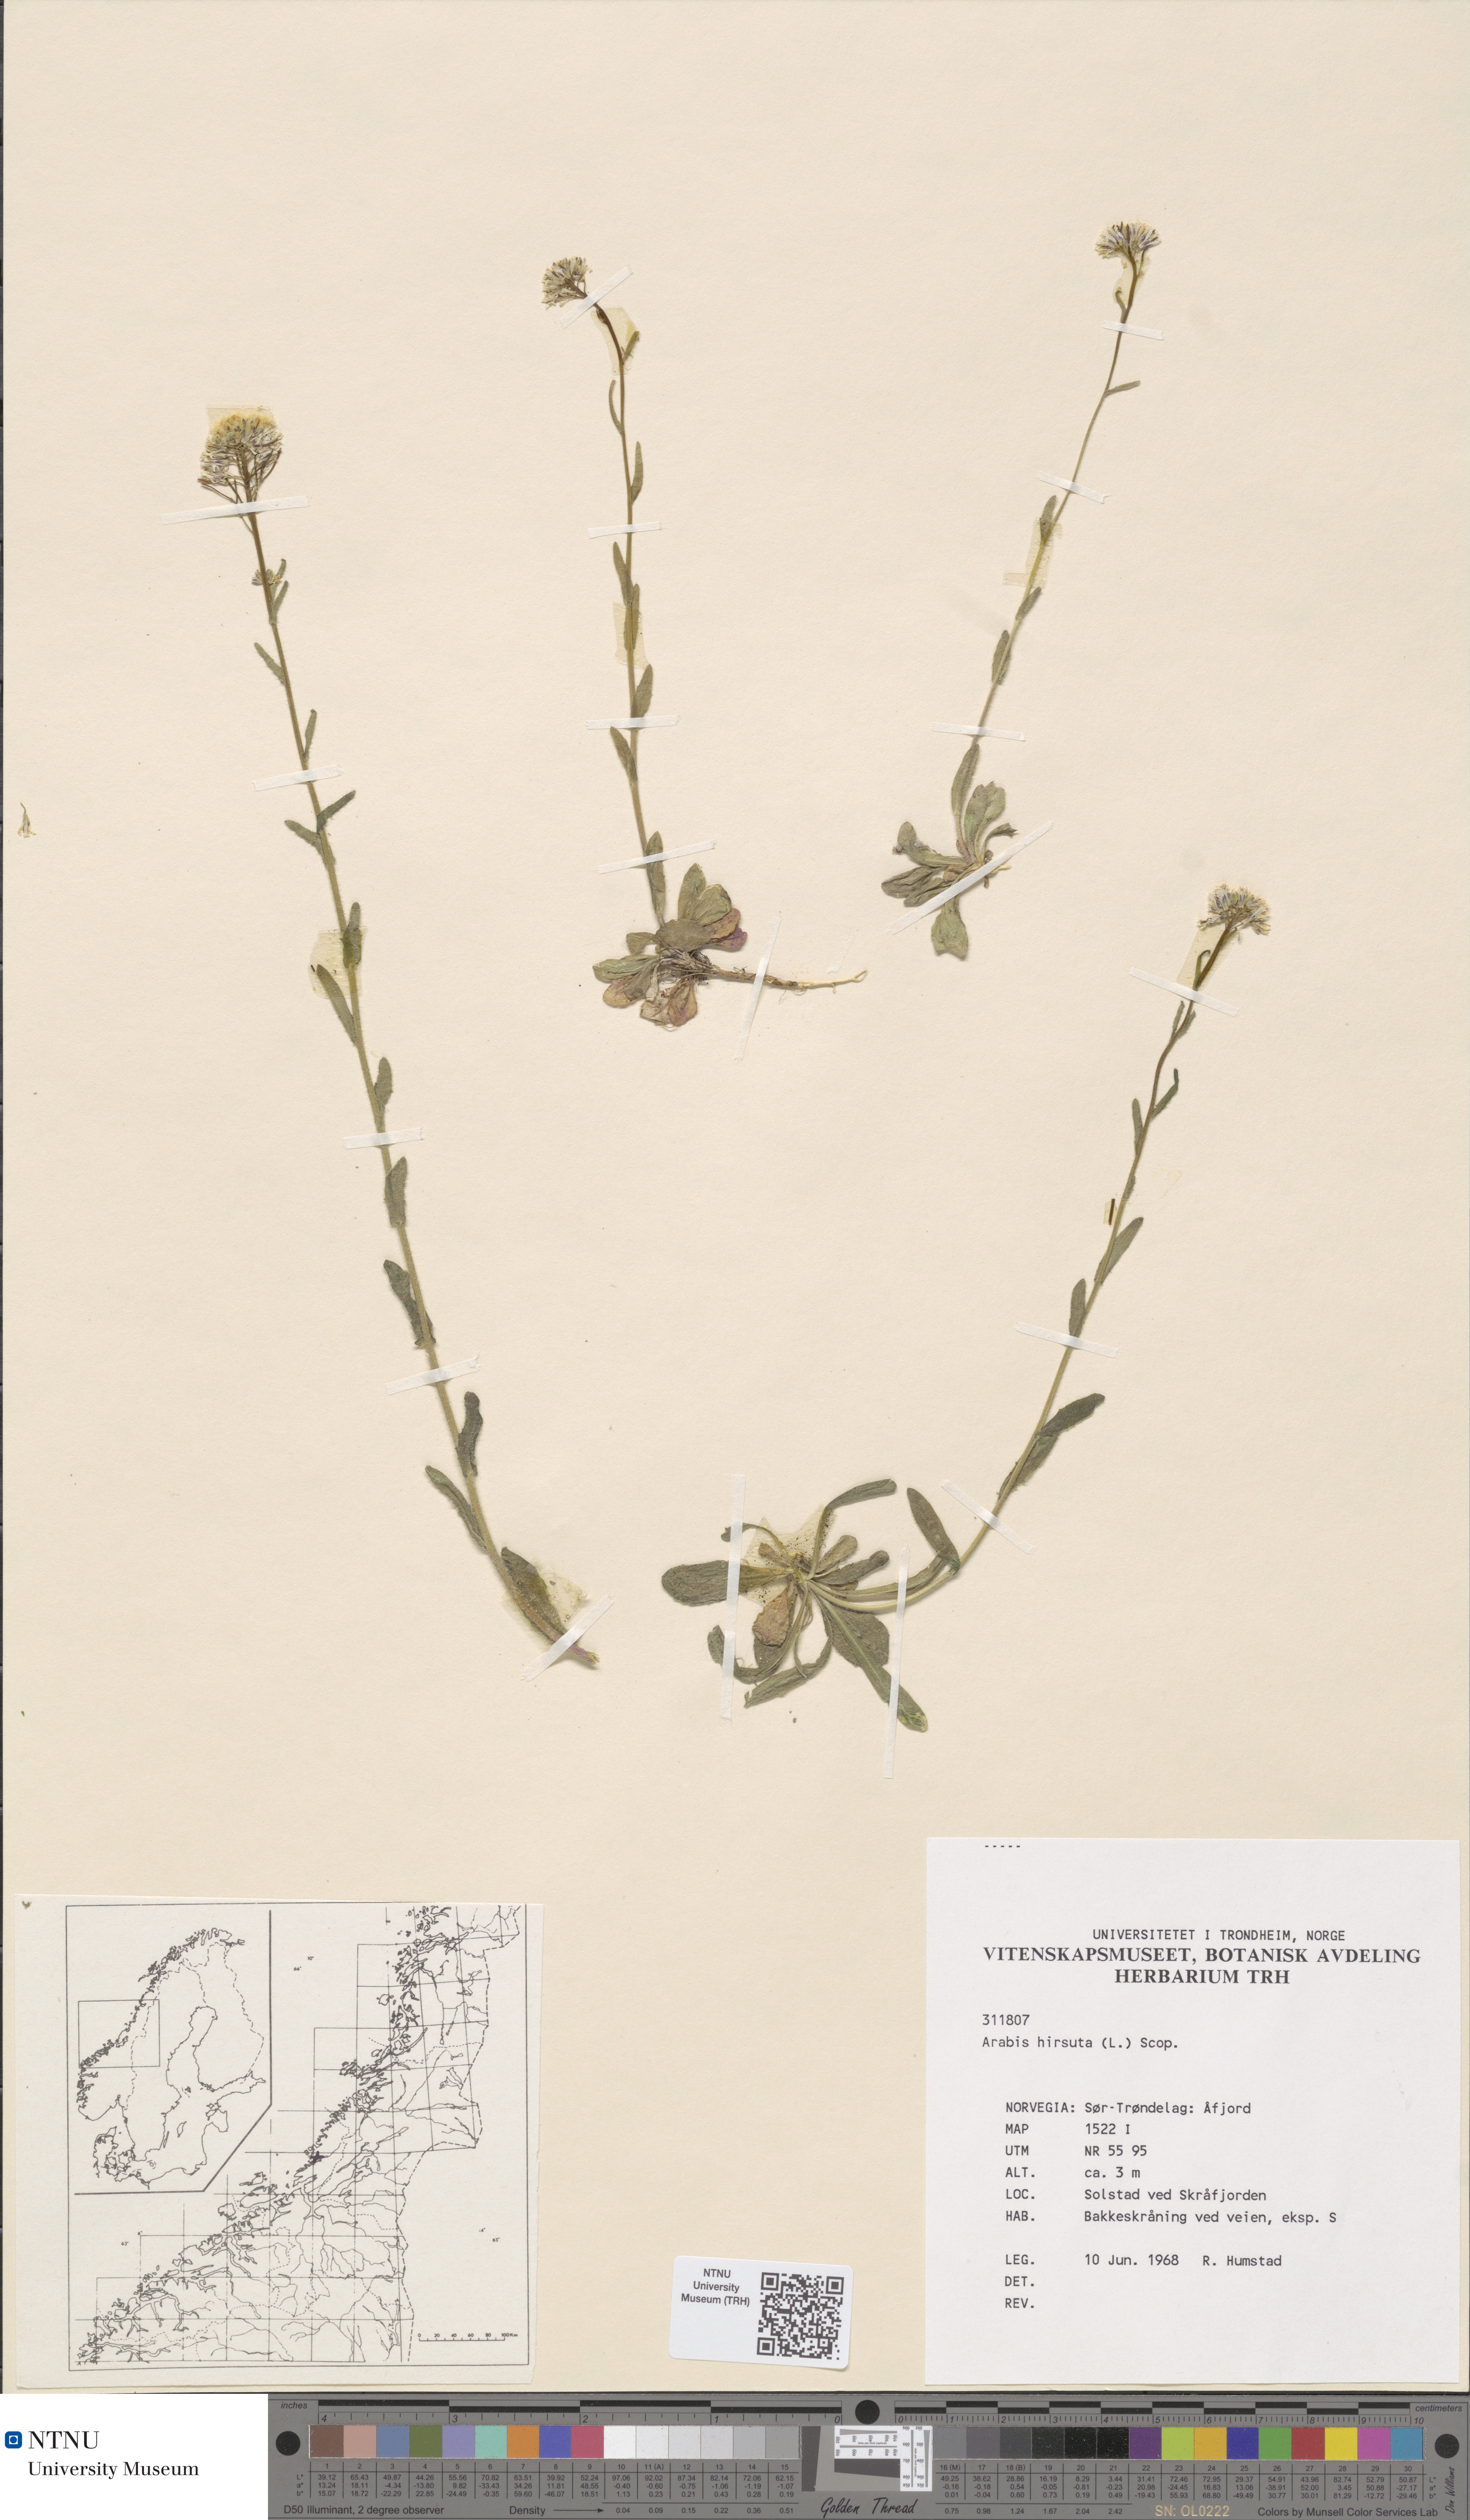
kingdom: Plantae
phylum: Tracheophyta
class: Magnoliopsida
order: Brassicales
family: Brassicaceae
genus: Arabis
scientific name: Arabis hirsuta
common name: Hairy rock-cress
